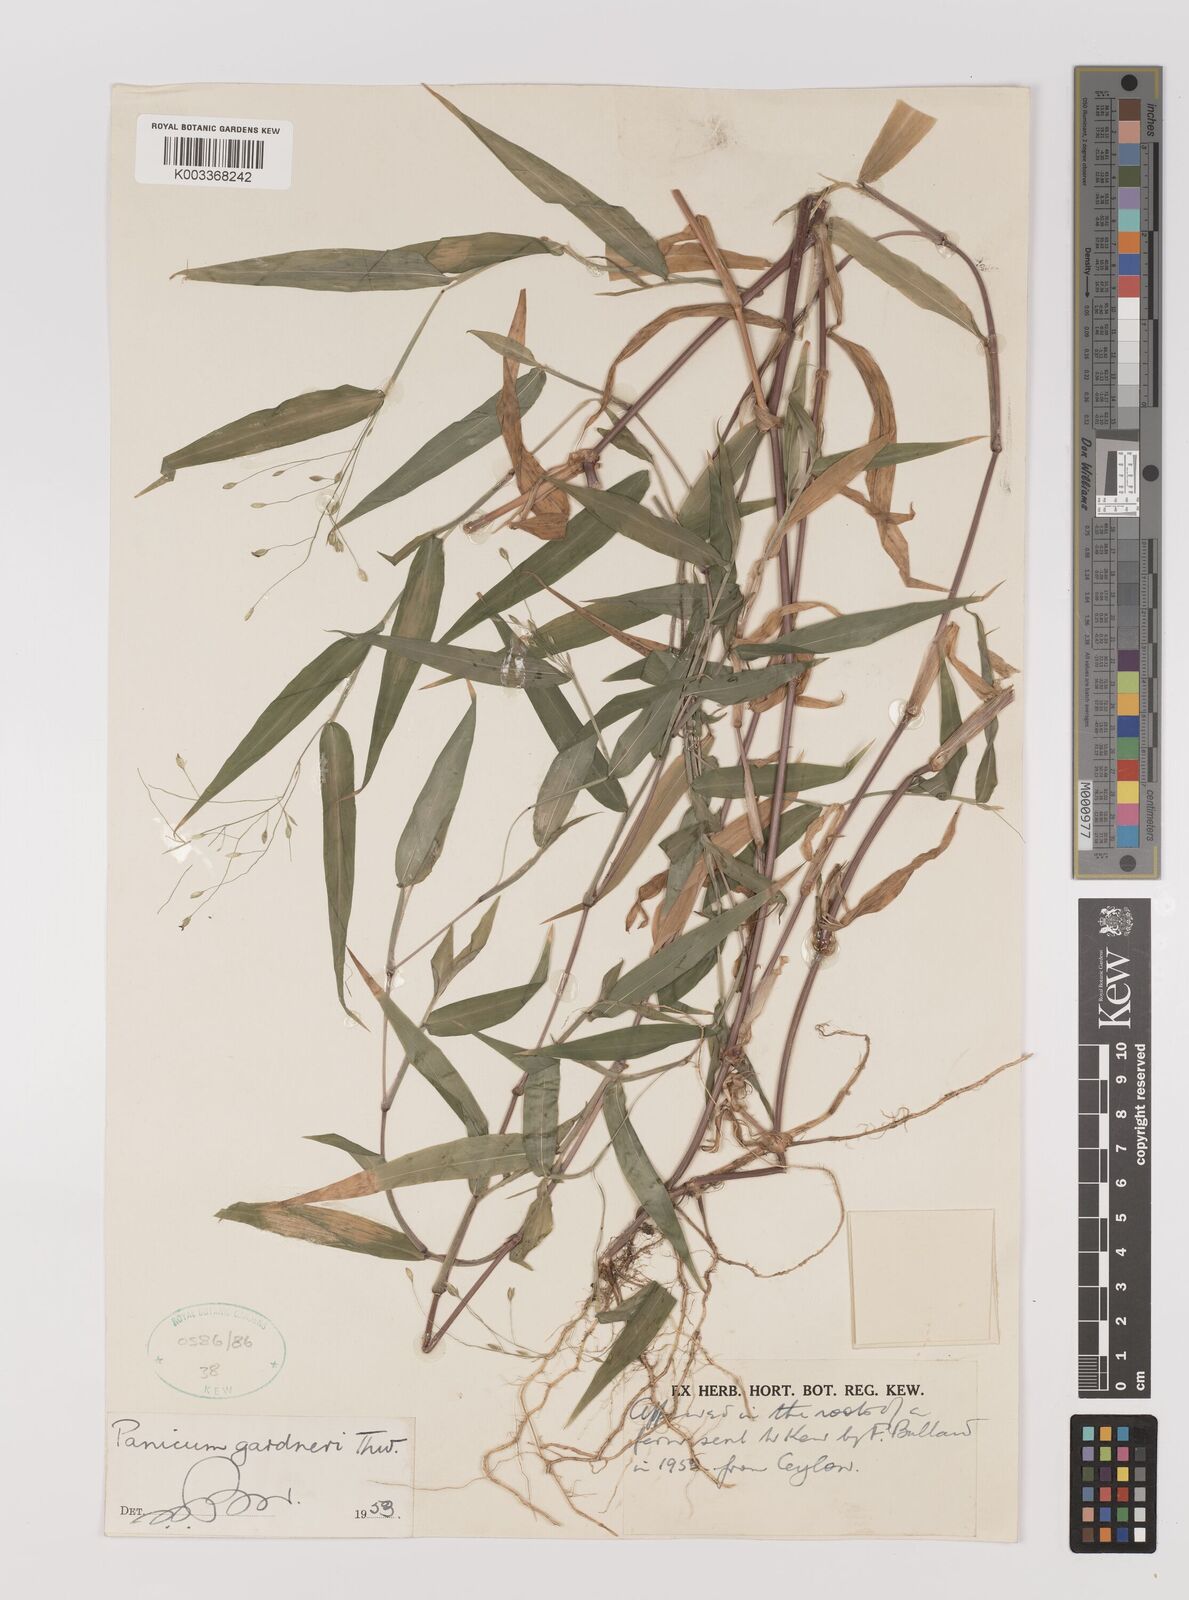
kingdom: Plantae
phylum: Tracheophyta
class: Liliopsida
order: Poales
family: Poaceae
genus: Panicum
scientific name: Panicum gardneri
